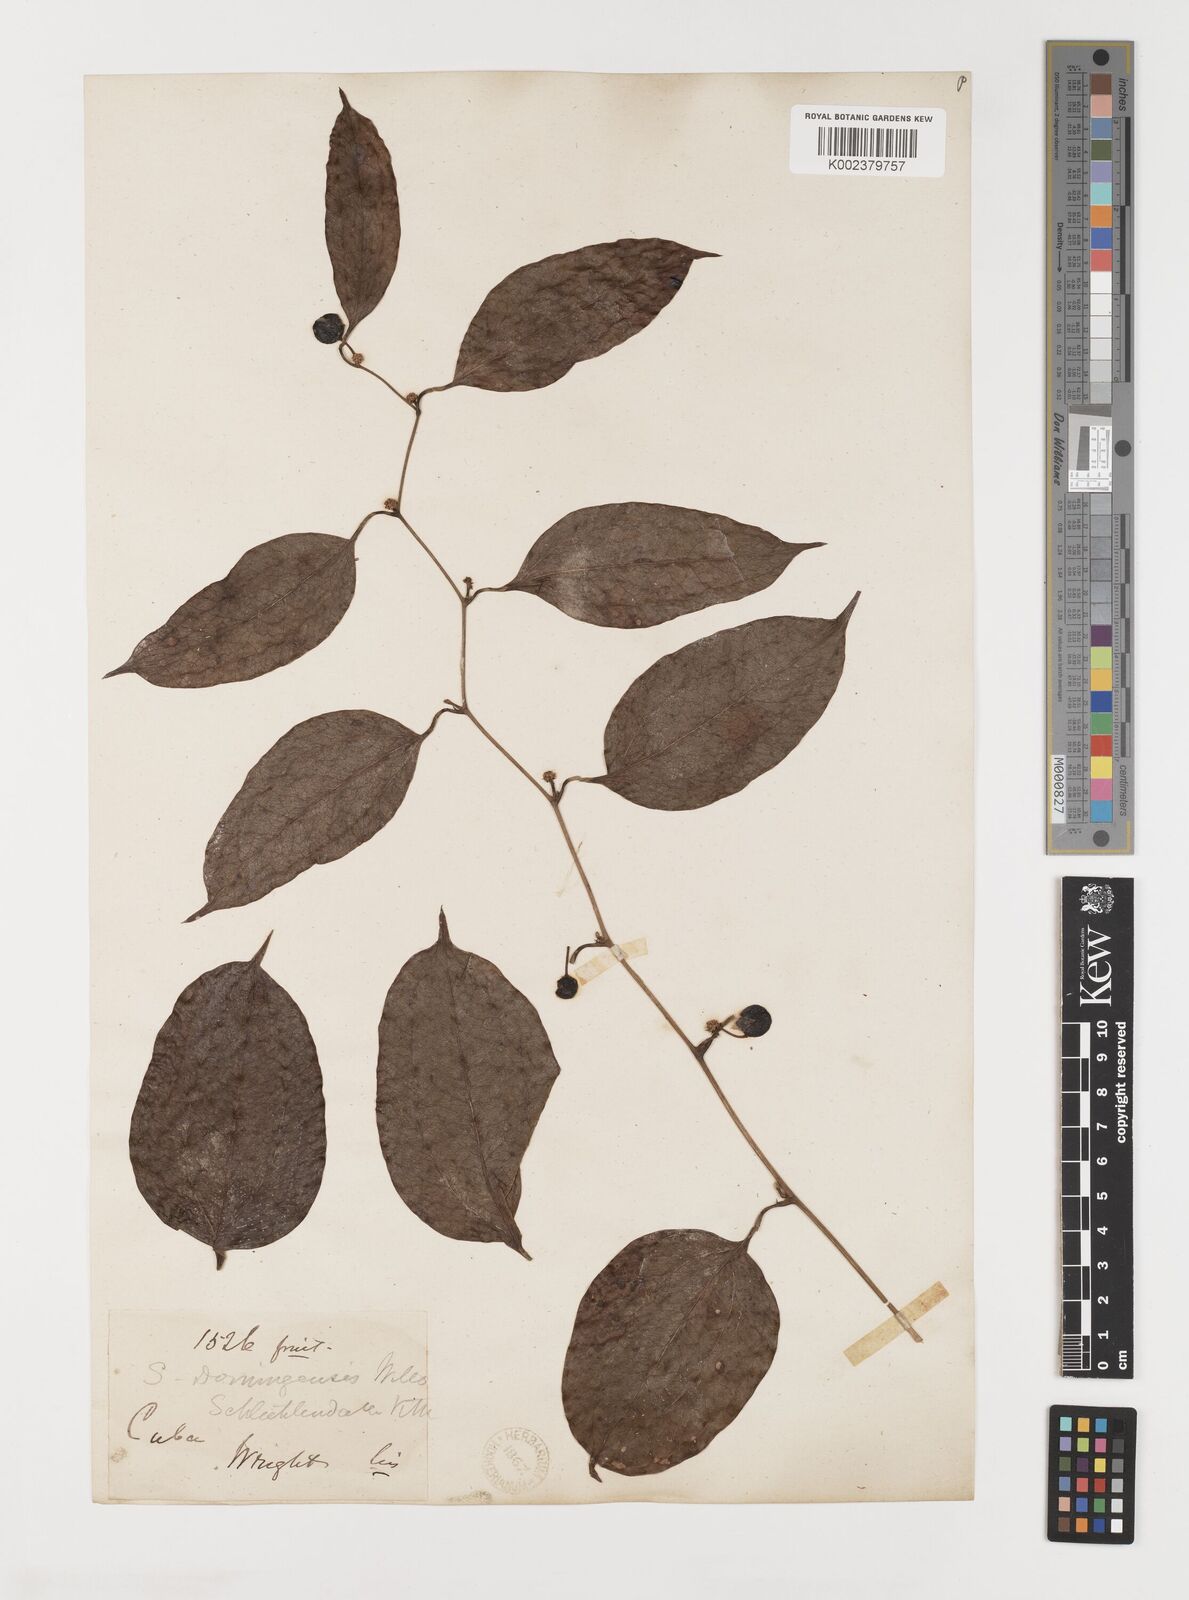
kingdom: Plantae
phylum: Tracheophyta
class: Liliopsida
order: Liliales
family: Smilacaceae
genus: Smilax
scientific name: Smilax domingensis
